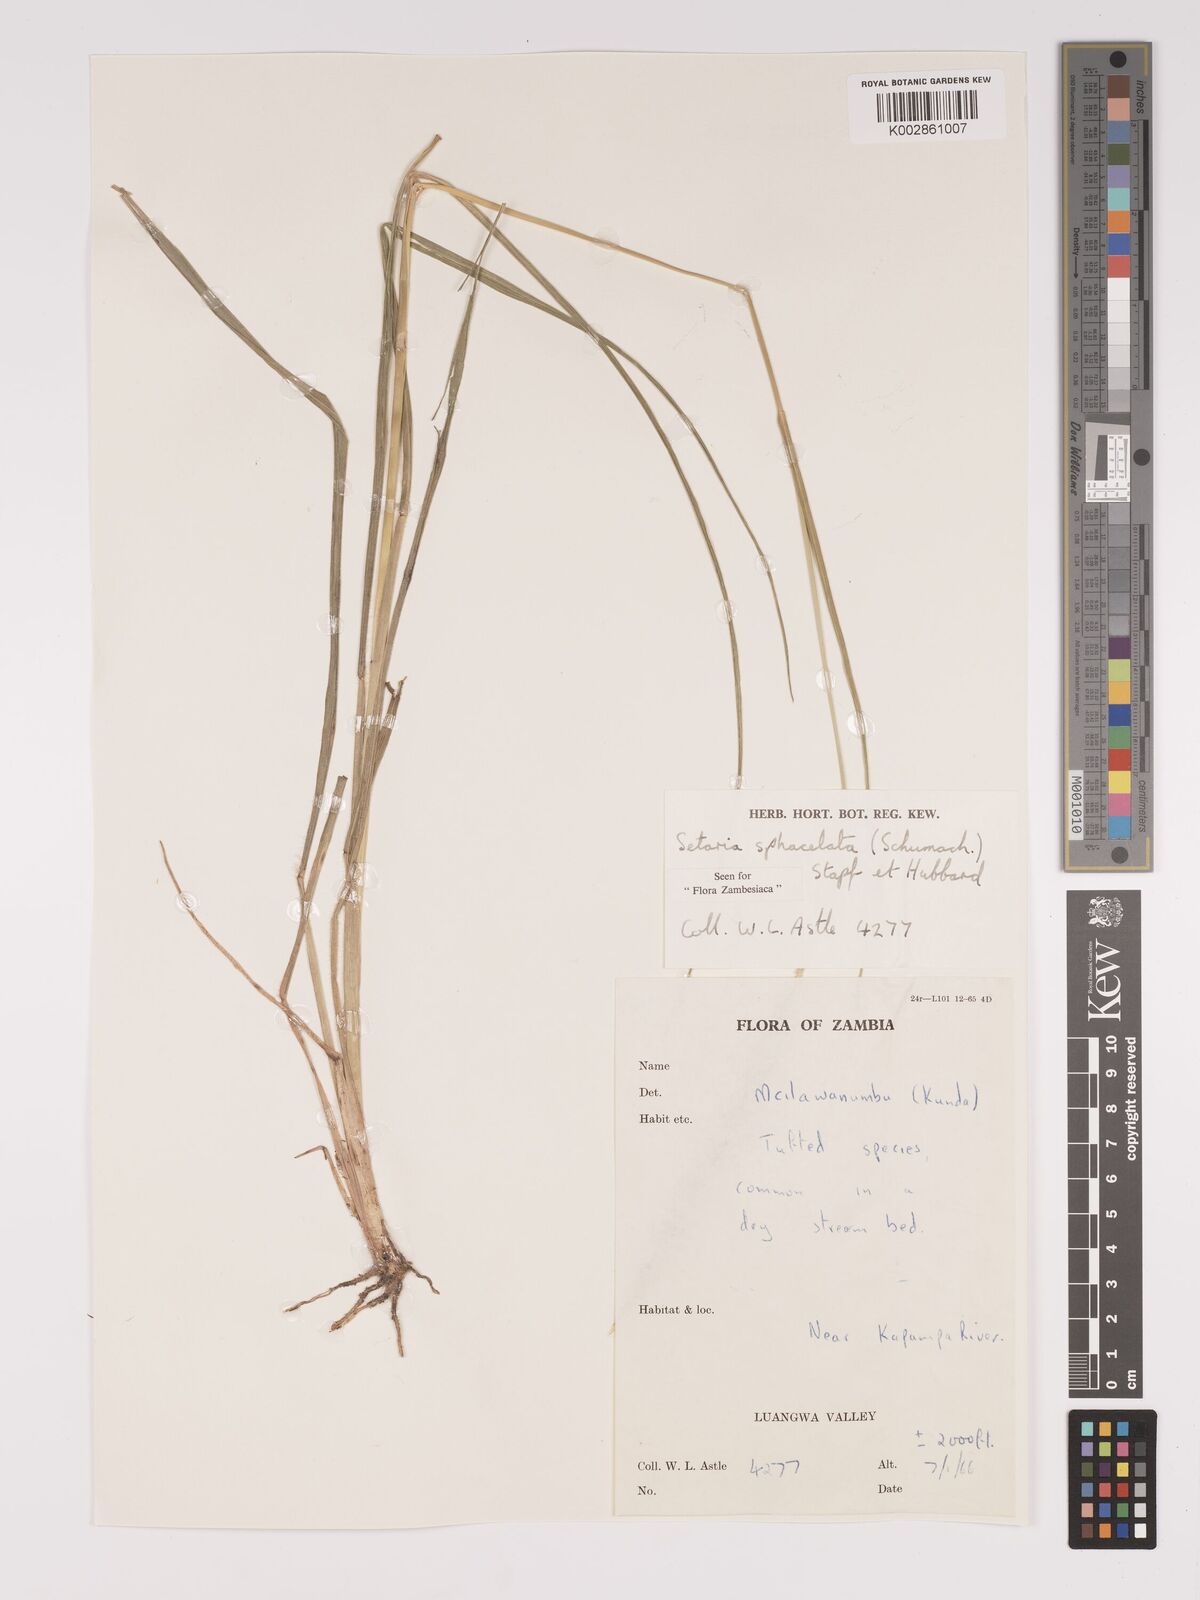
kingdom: Plantae
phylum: Tracheophyta
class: Liliopsida
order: Poales
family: Poaceae
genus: Setaria
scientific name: Setaria sphacelata
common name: African bristlegrass
